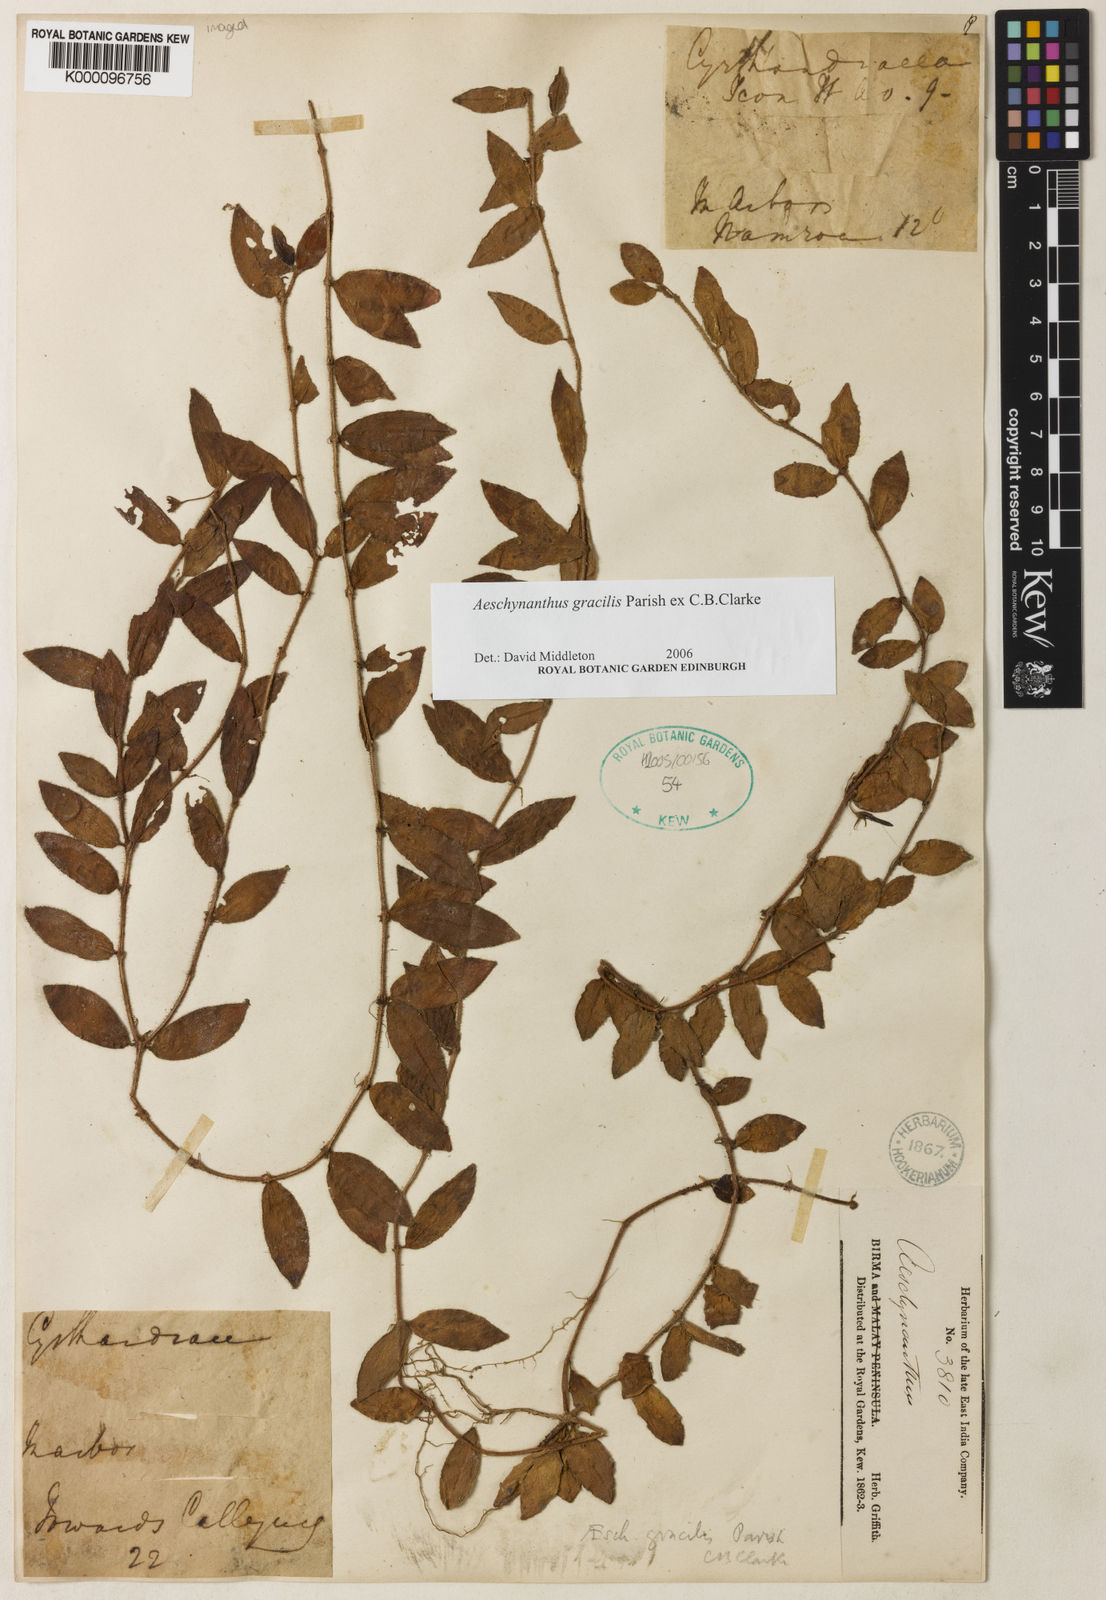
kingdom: Plantae
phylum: Tracheophyta
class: Magnoliopsida
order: Lamiales
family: Gesneriaceae
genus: Aeschynanthus
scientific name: Aeschynanthus gracilis
